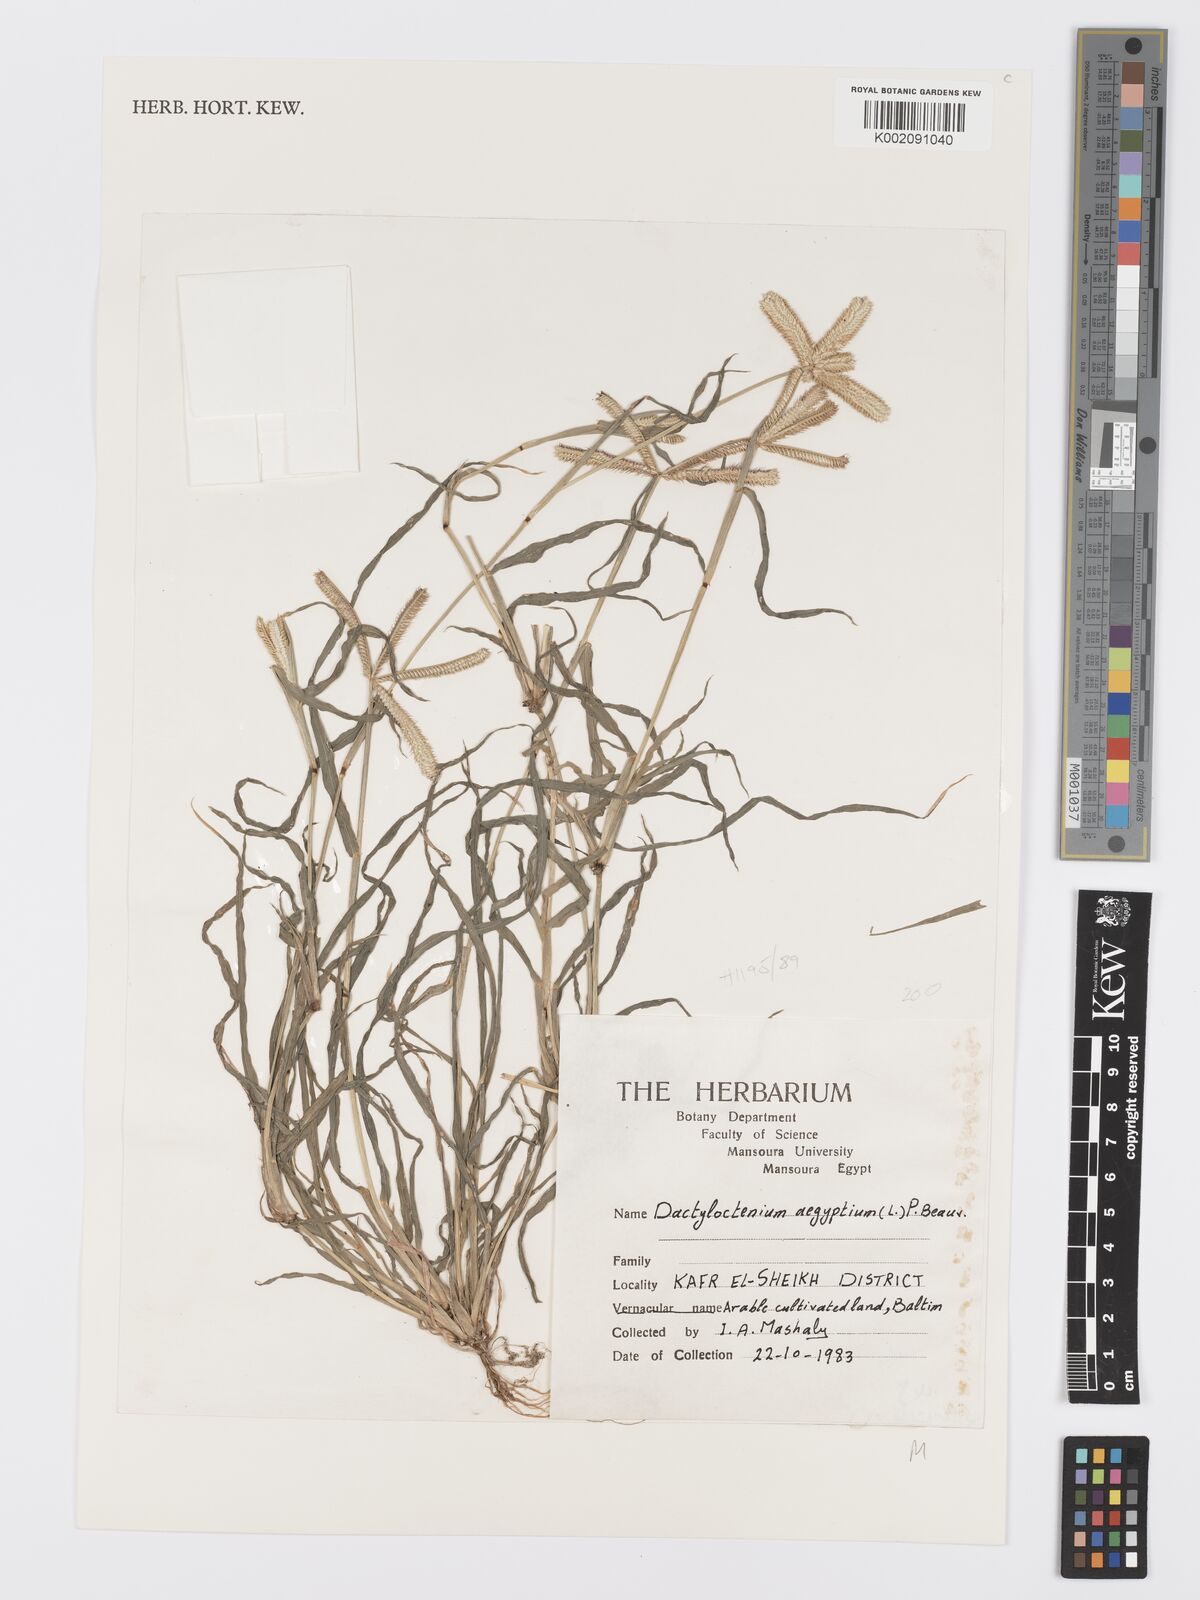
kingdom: Plantae
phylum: Tracheophyta
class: Liliopsida
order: Poales
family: Poaceae
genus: Dactyloctenium
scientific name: Dactyloctenium aegyptium
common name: Egyptian grass
